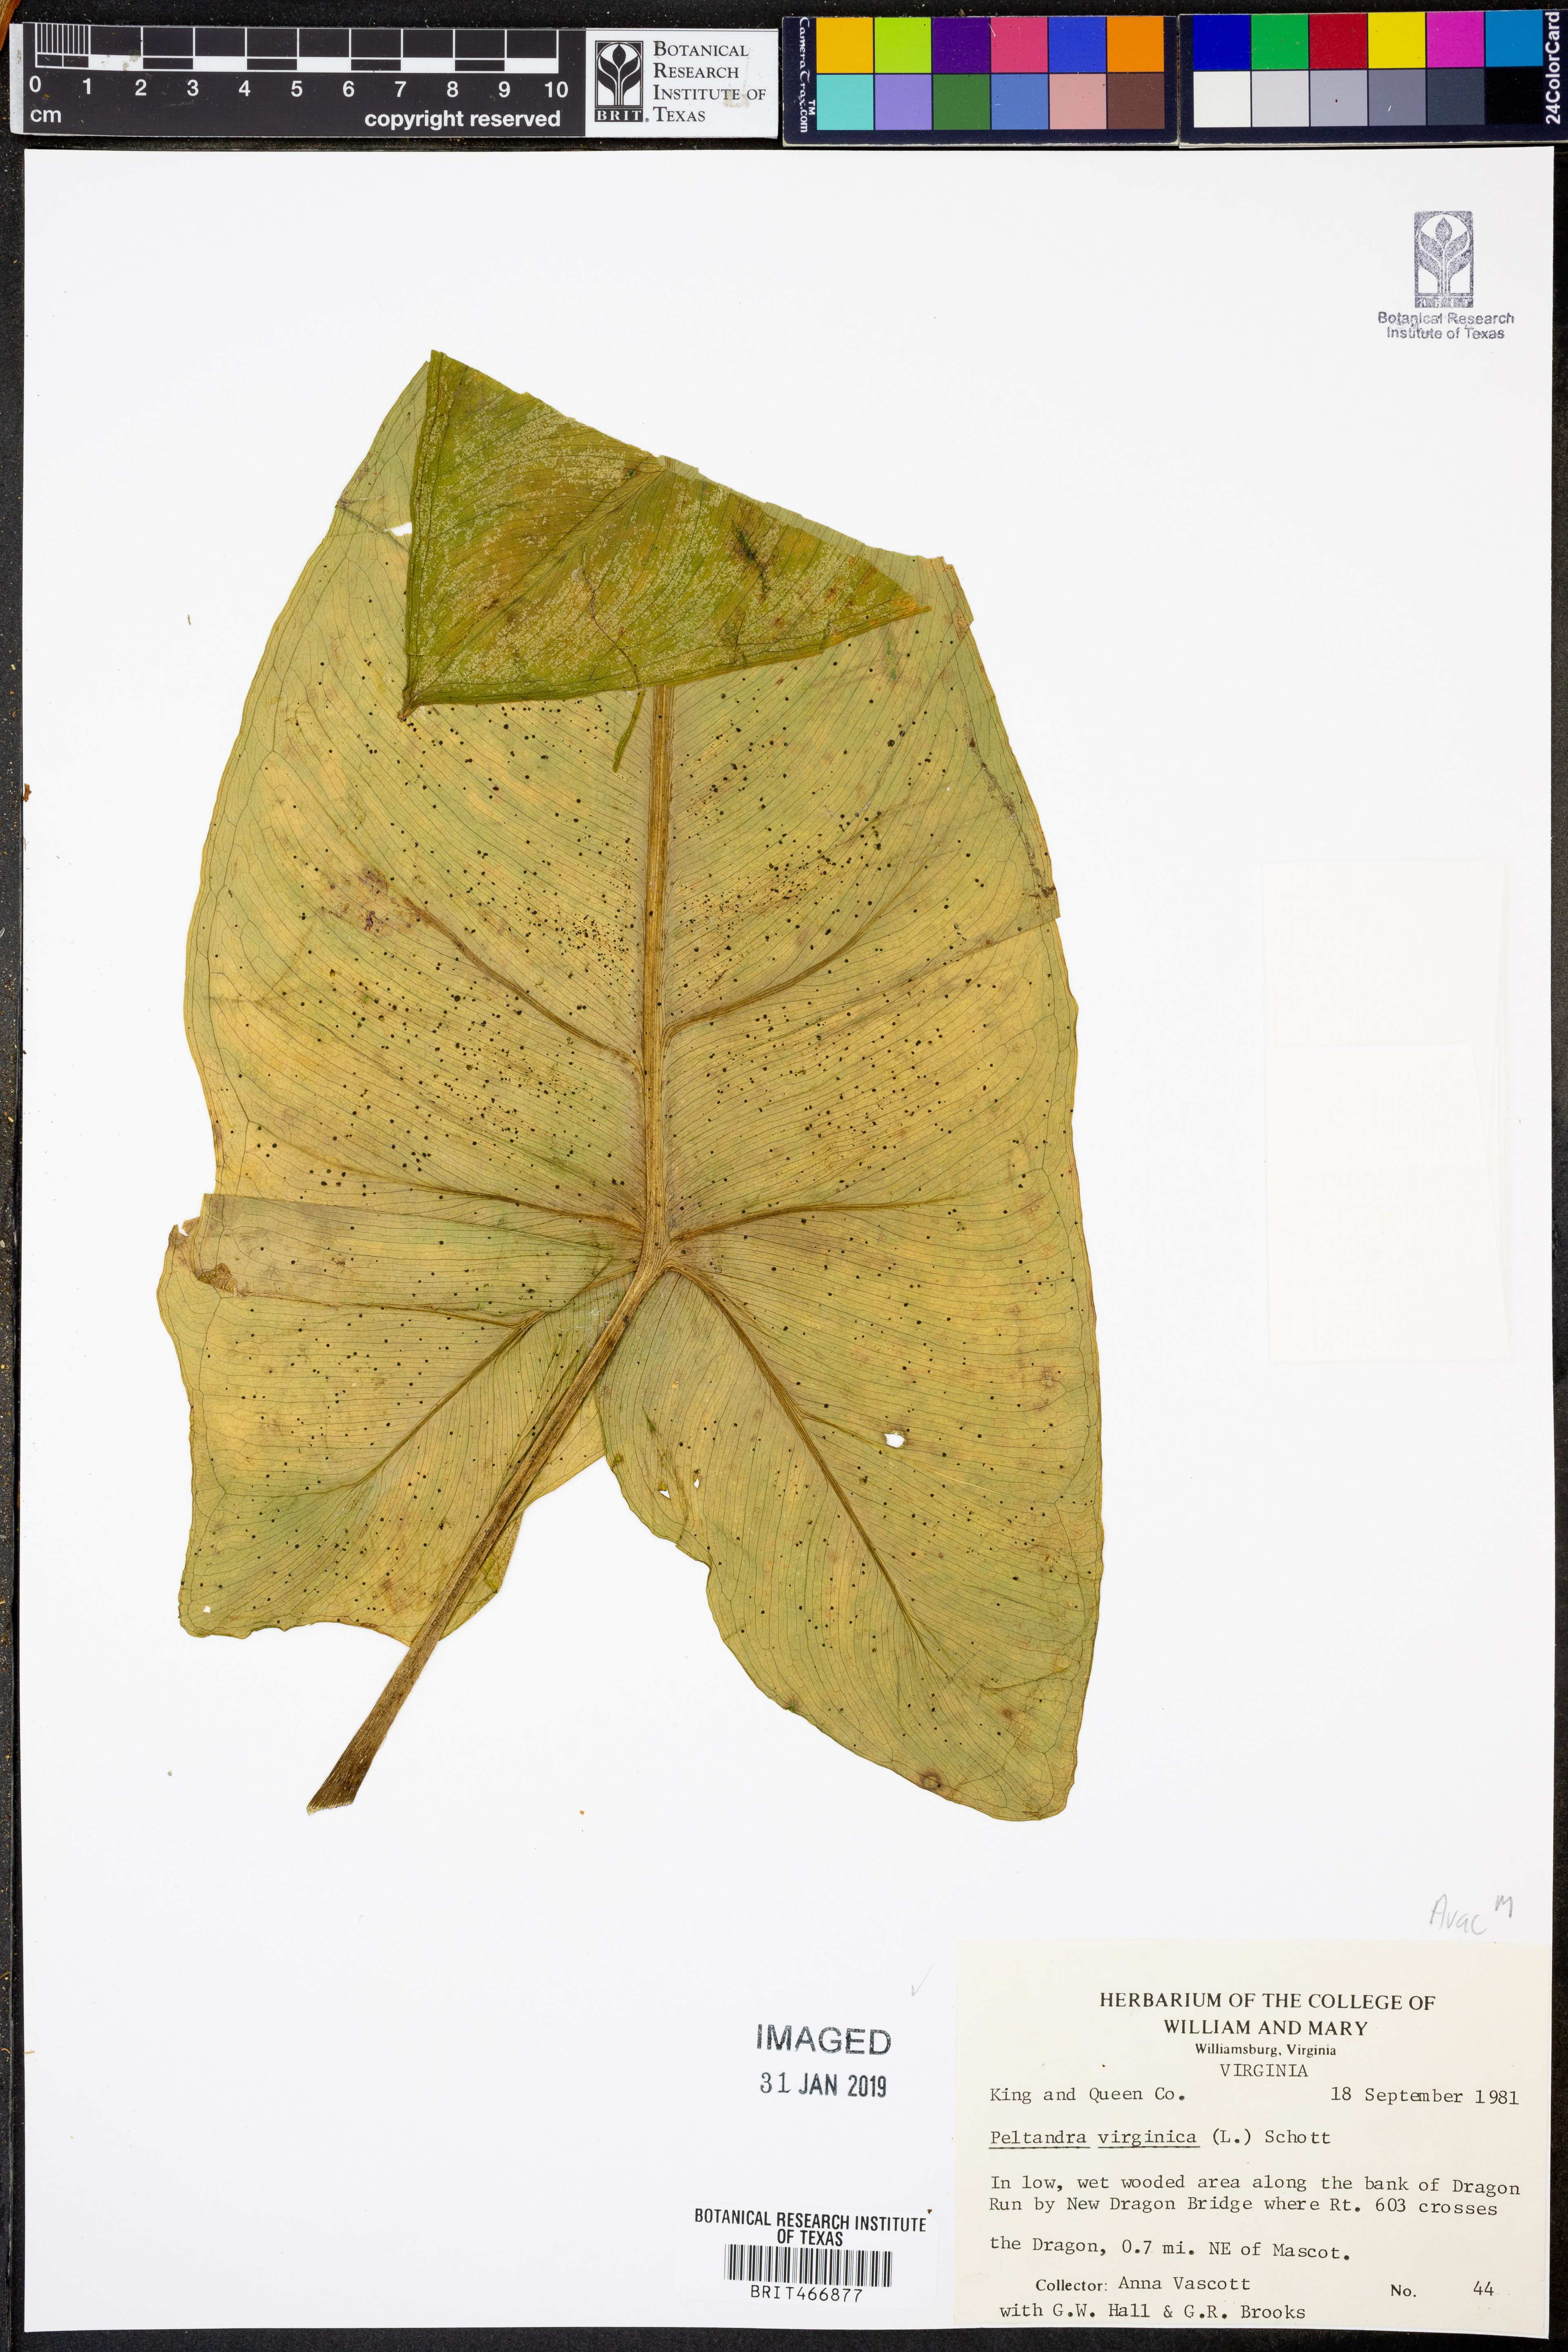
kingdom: Plantae
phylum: Tracheophyta
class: Liliopsida
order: Alismatales
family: Araceae
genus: Peltandra
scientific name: Peltandra virginica
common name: Arrow arum
